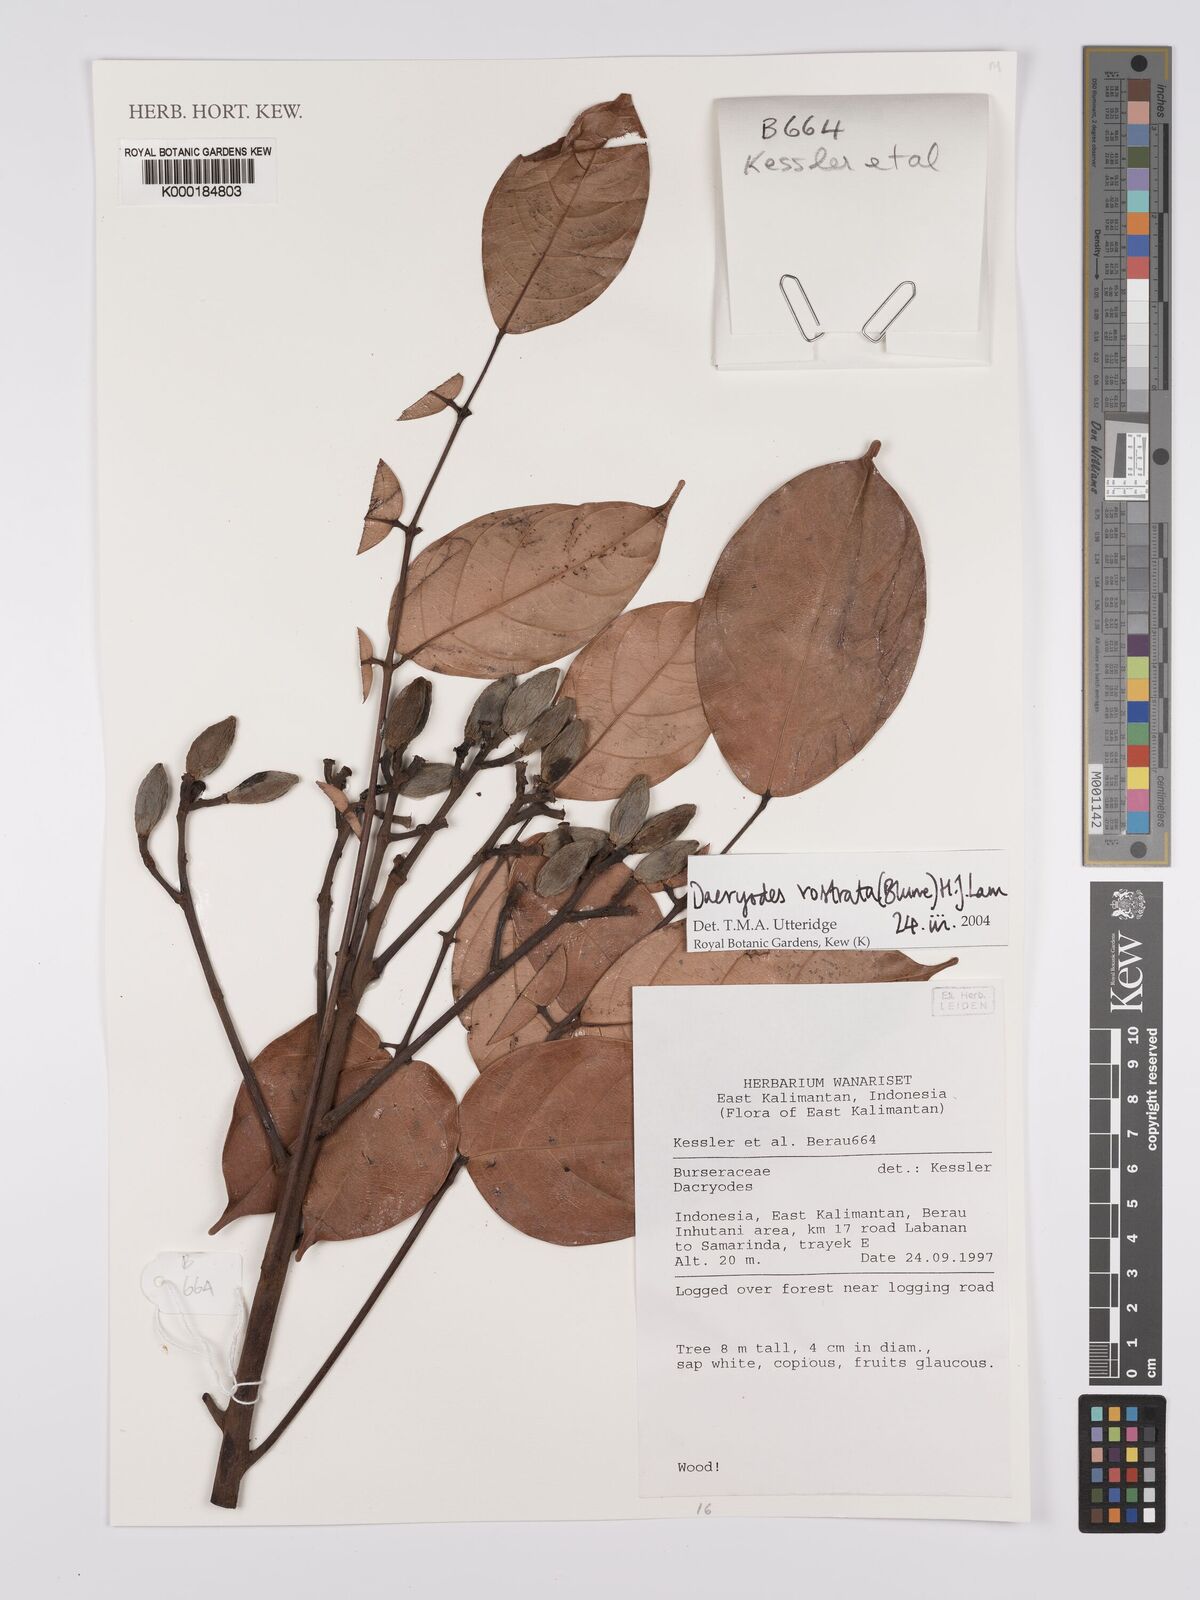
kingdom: Plantae
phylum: Tracheophyta
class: Magnoliopsida
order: Sapindales
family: Burseraceae
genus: Dacryodes
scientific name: Dacryodes rostrata
